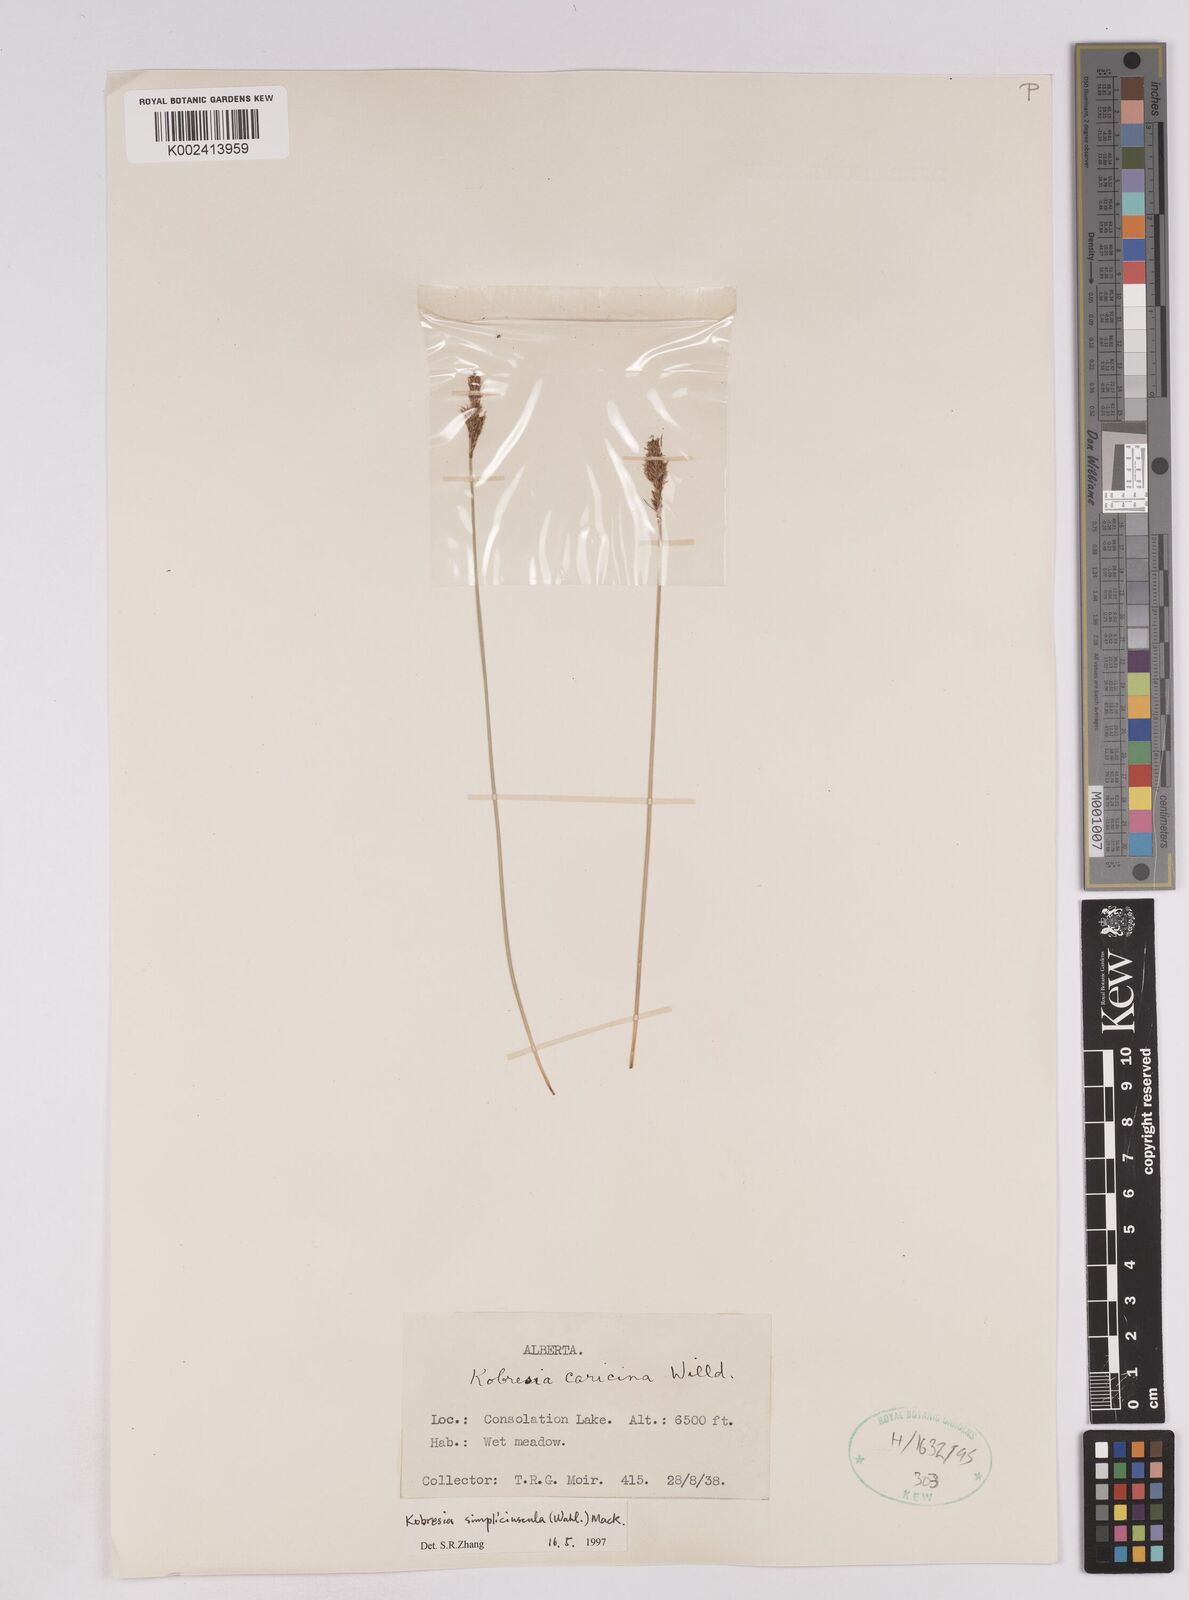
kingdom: Plantae
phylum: Tracheophyta
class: Liliopsida
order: Poales
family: Cyperaceae
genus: Carex
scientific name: Carex simpliciuscula
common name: Simple bog sedge
